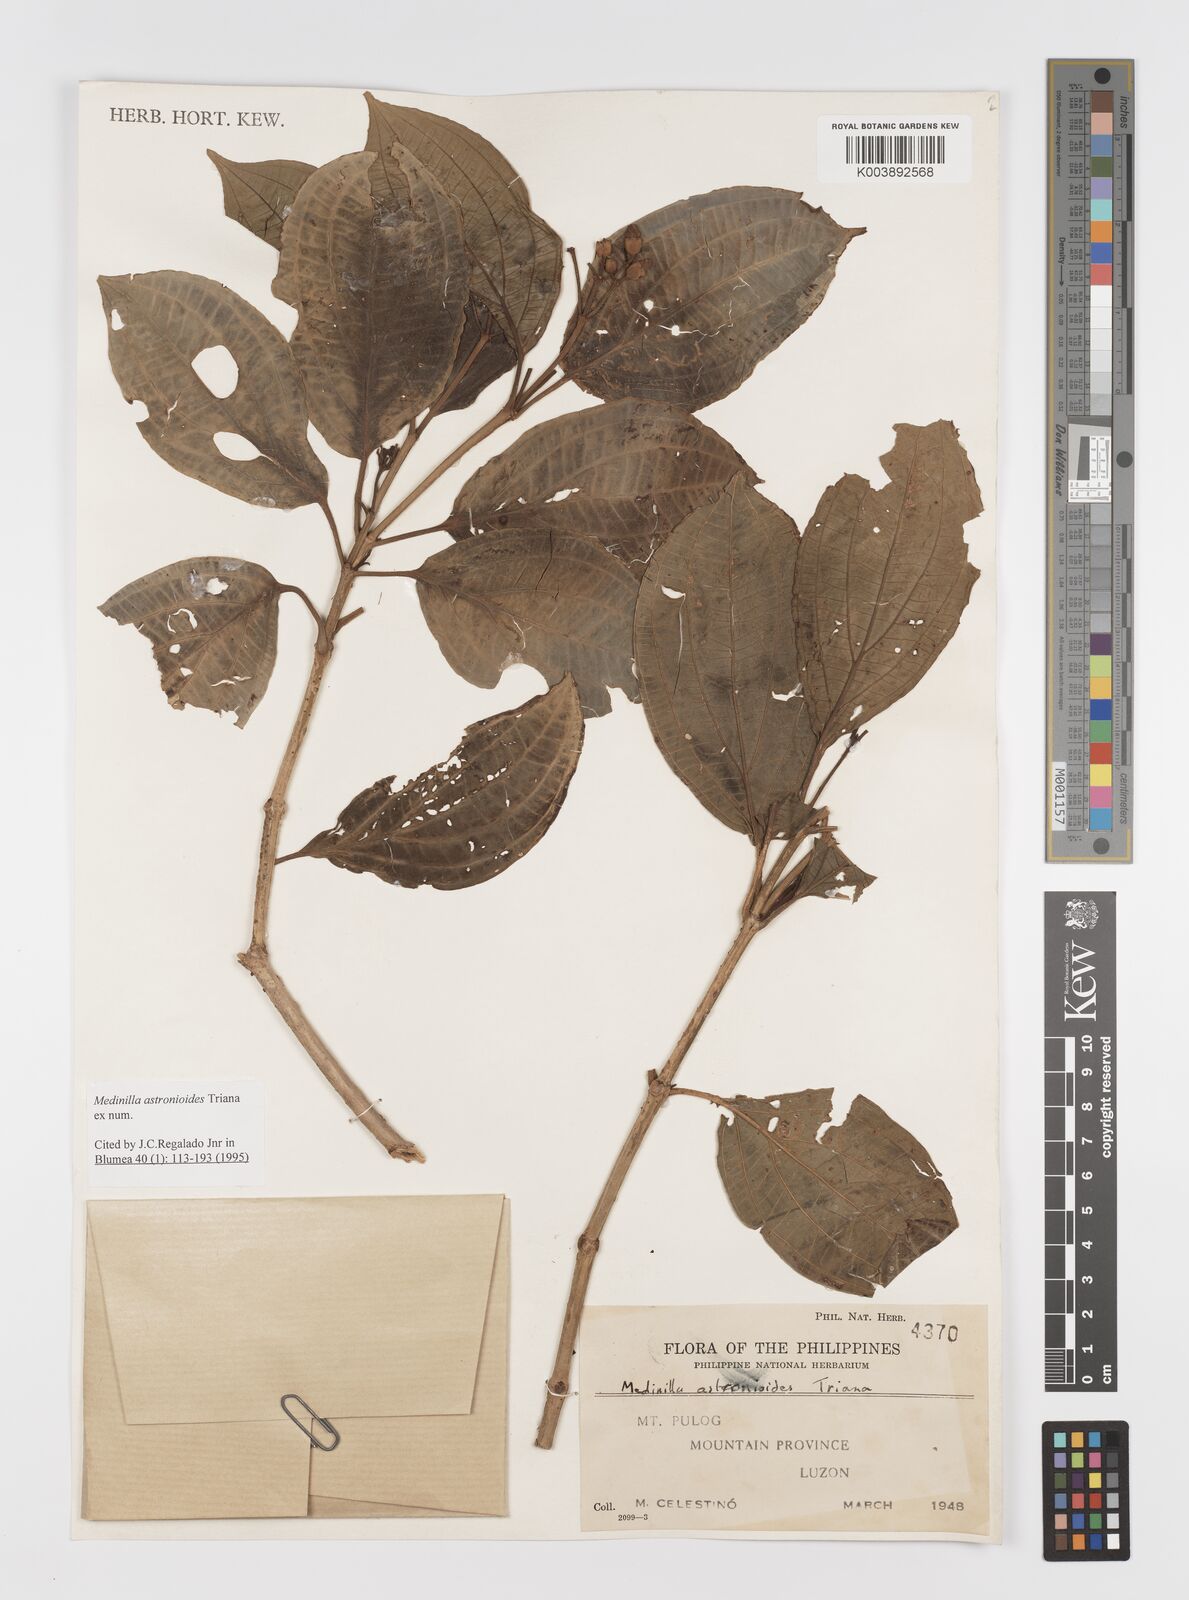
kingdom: Plantae
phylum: Tracheophyta
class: Magnoliopsida
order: Myrtales
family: Melastomataceae
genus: Medinilla
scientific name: Medinilla astronioides
